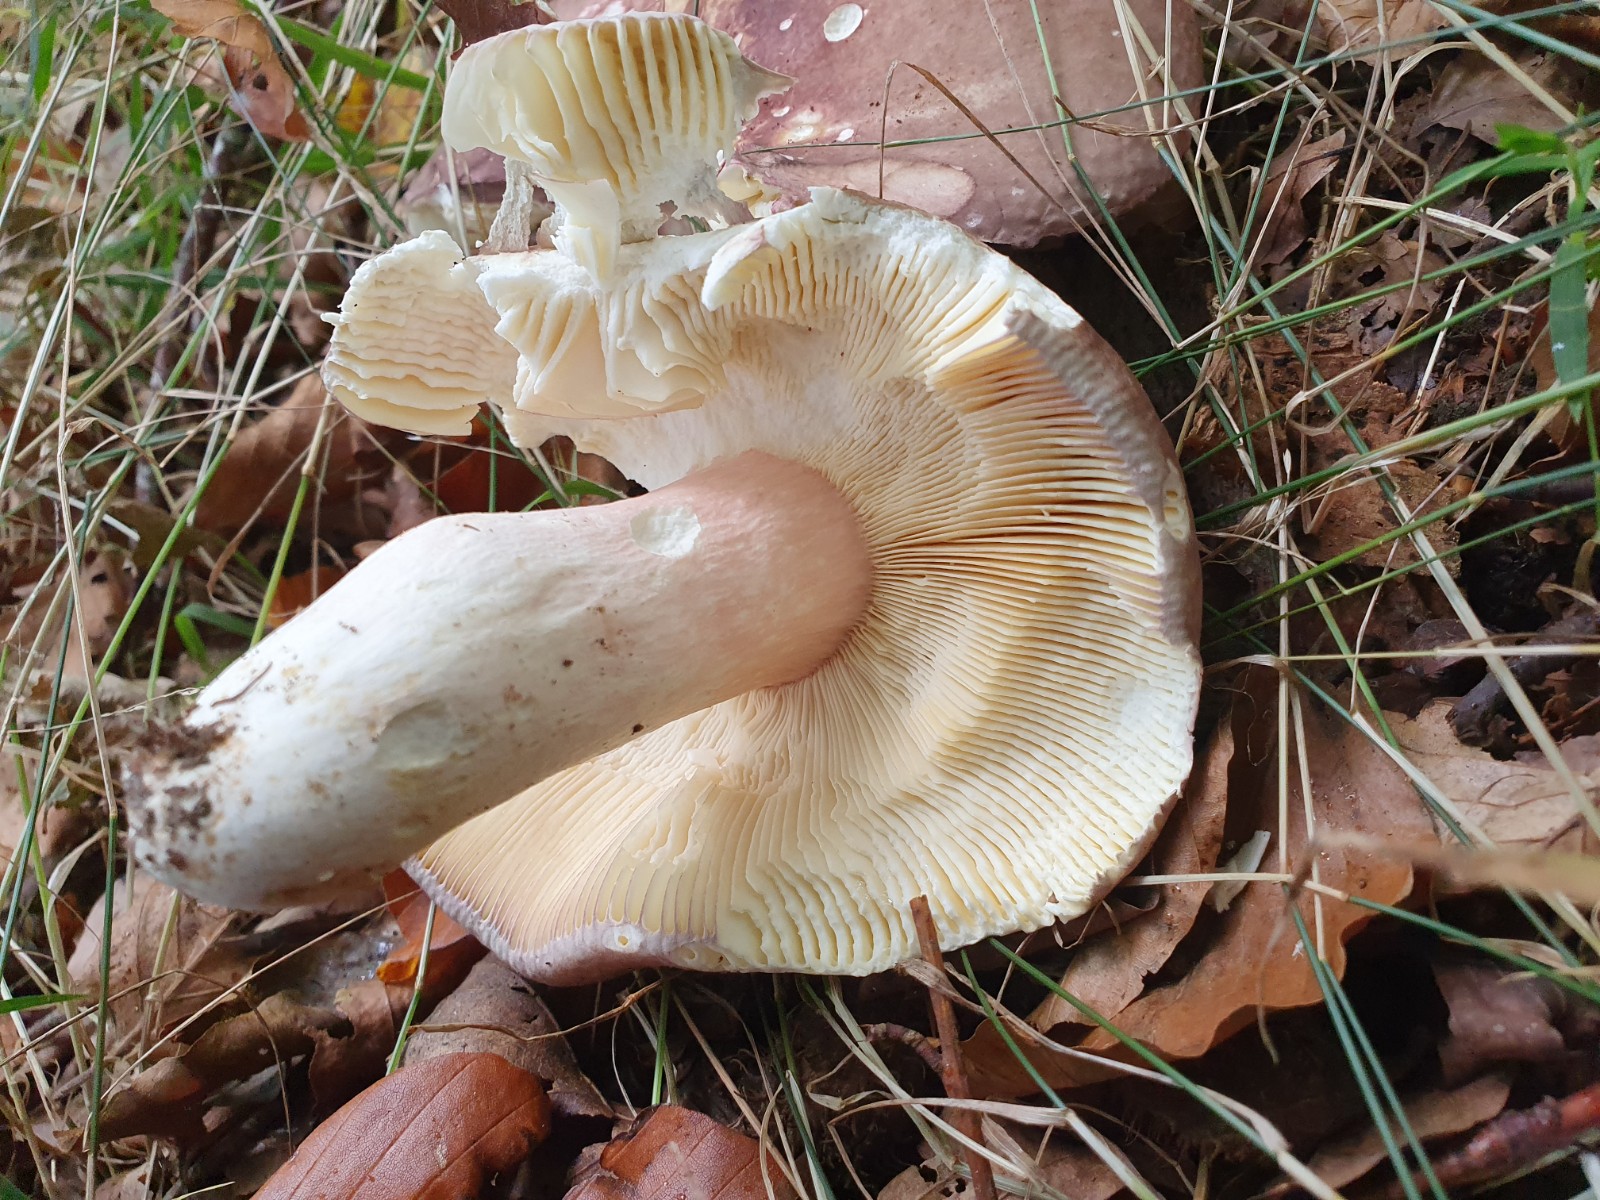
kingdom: Fungi
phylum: Basidiomycota
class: Agaricomycetes
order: Russulales
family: Russulaceae
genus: Russula
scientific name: Russula olivacea
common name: stor skørhat
